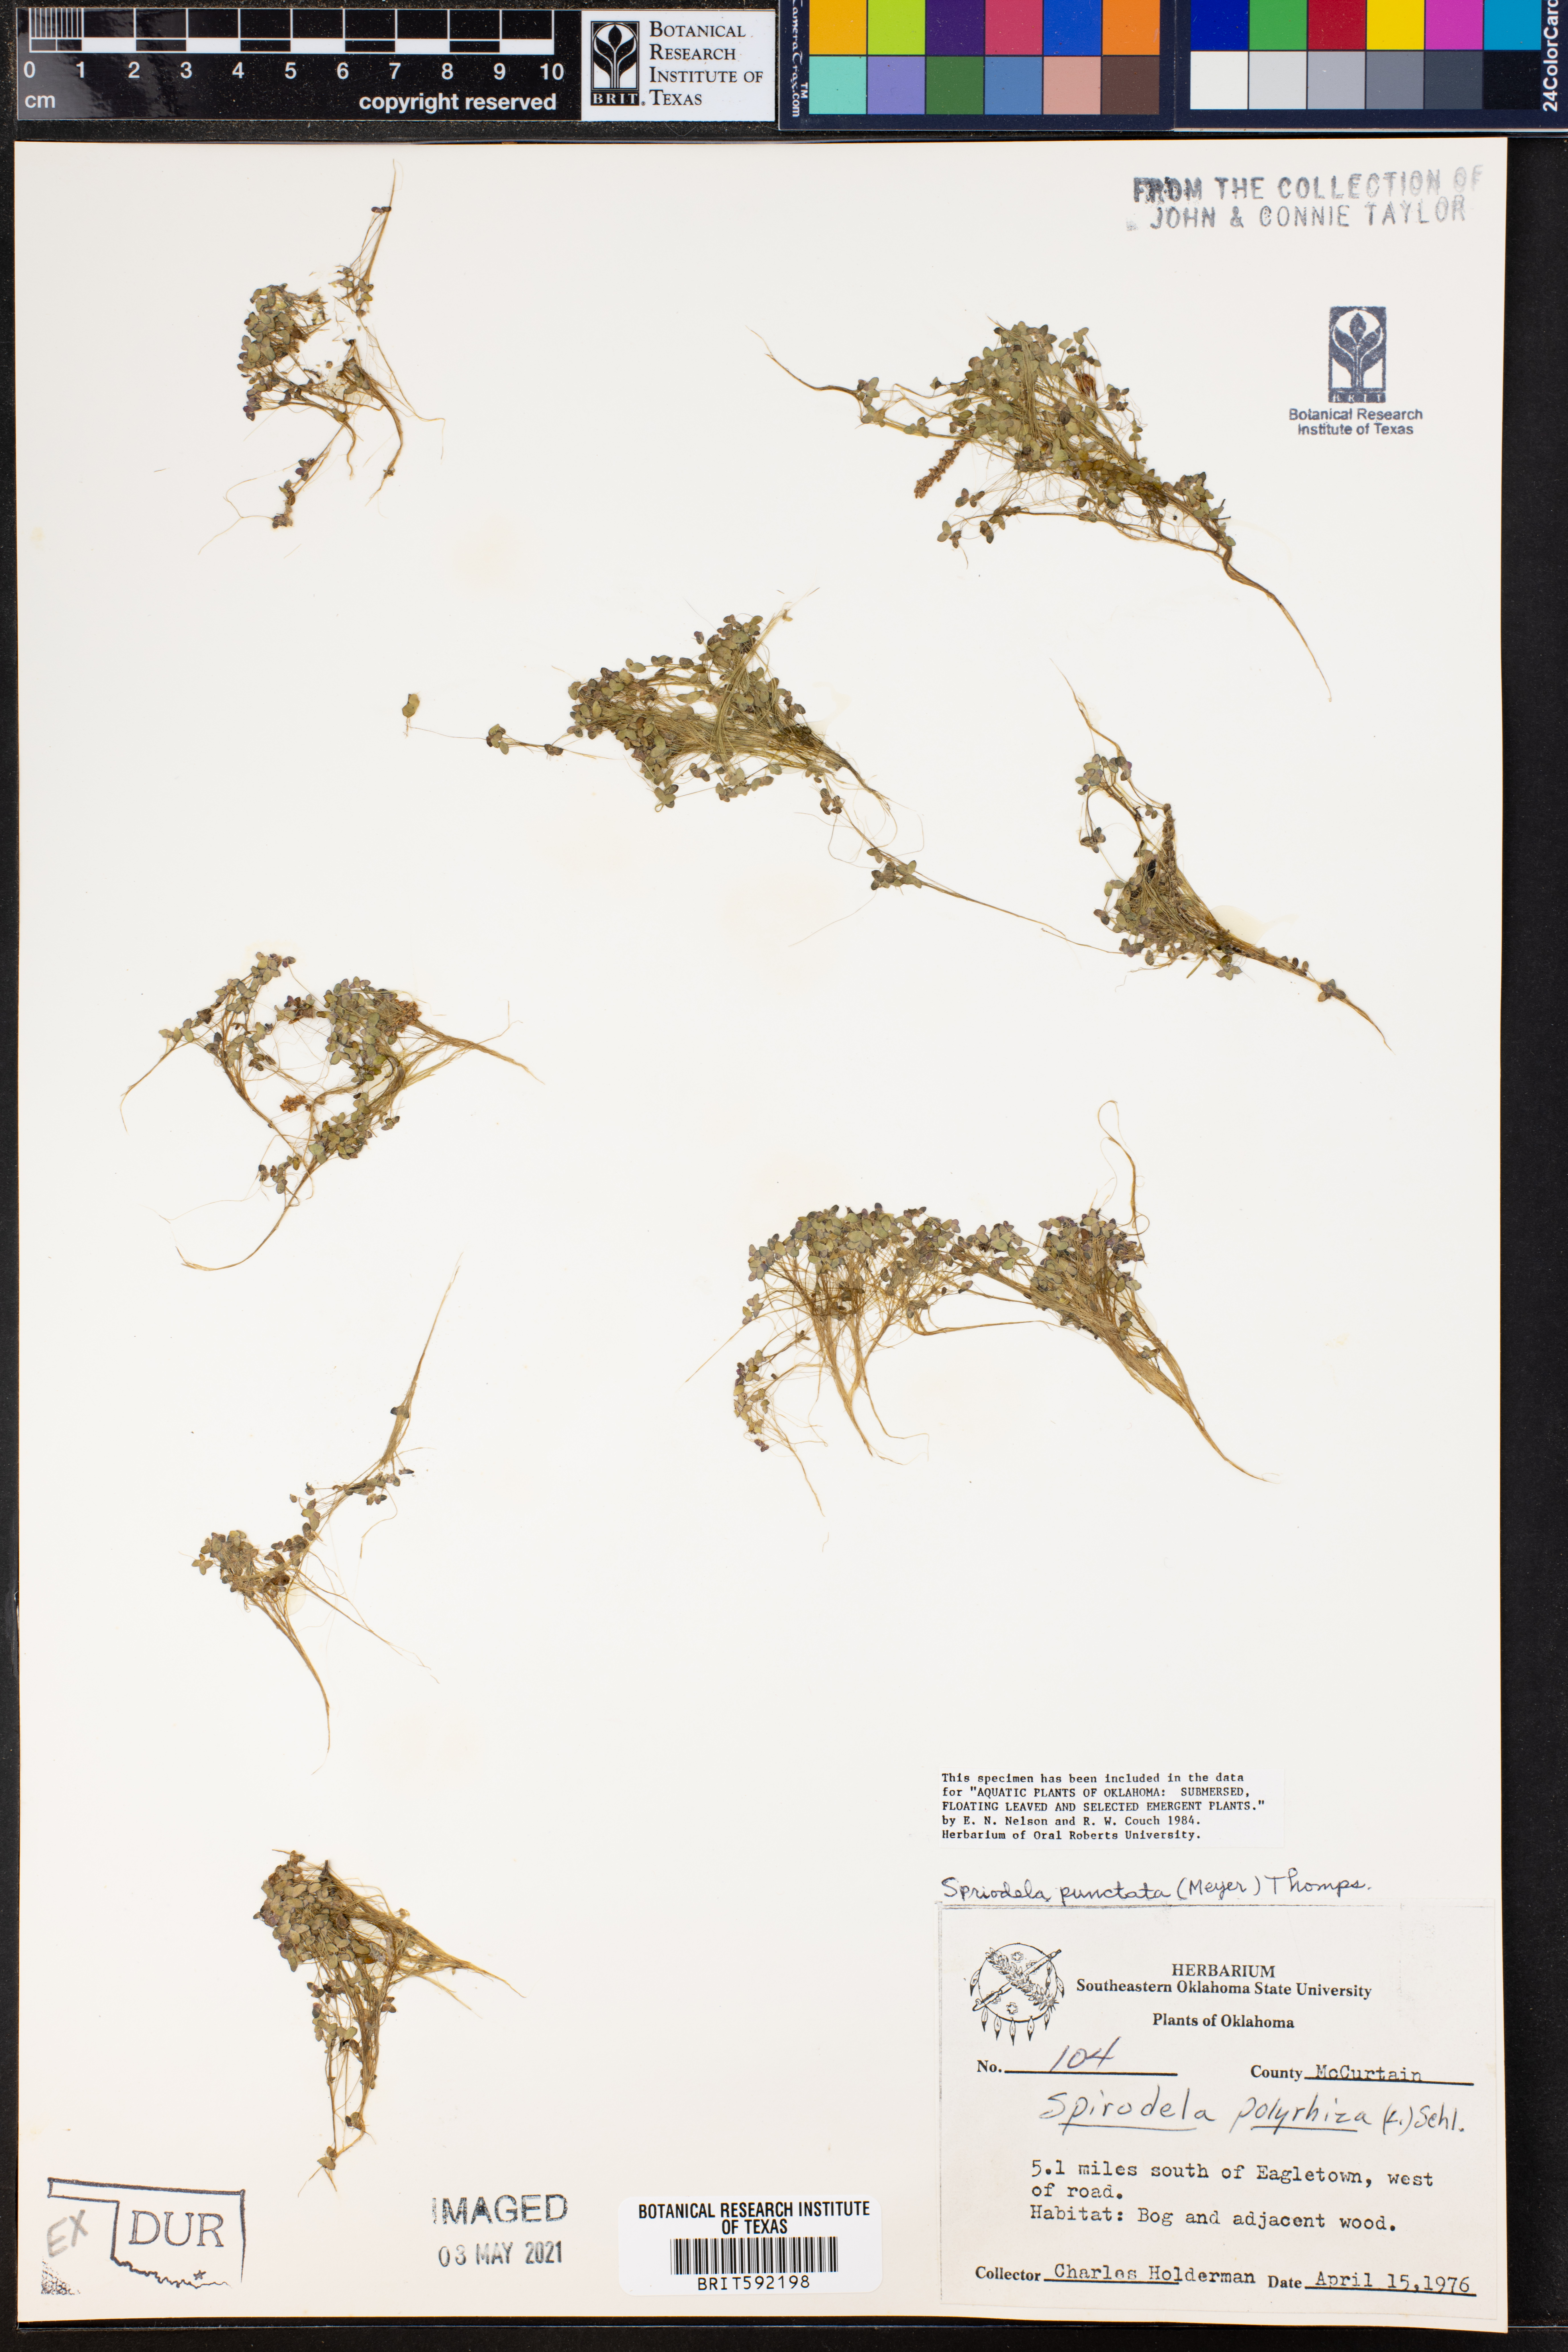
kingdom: Plantae
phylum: Tracheophyta
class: Liliopsida
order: Alismatales
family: Araceae
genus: Spirodela
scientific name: Spirodela punctata
